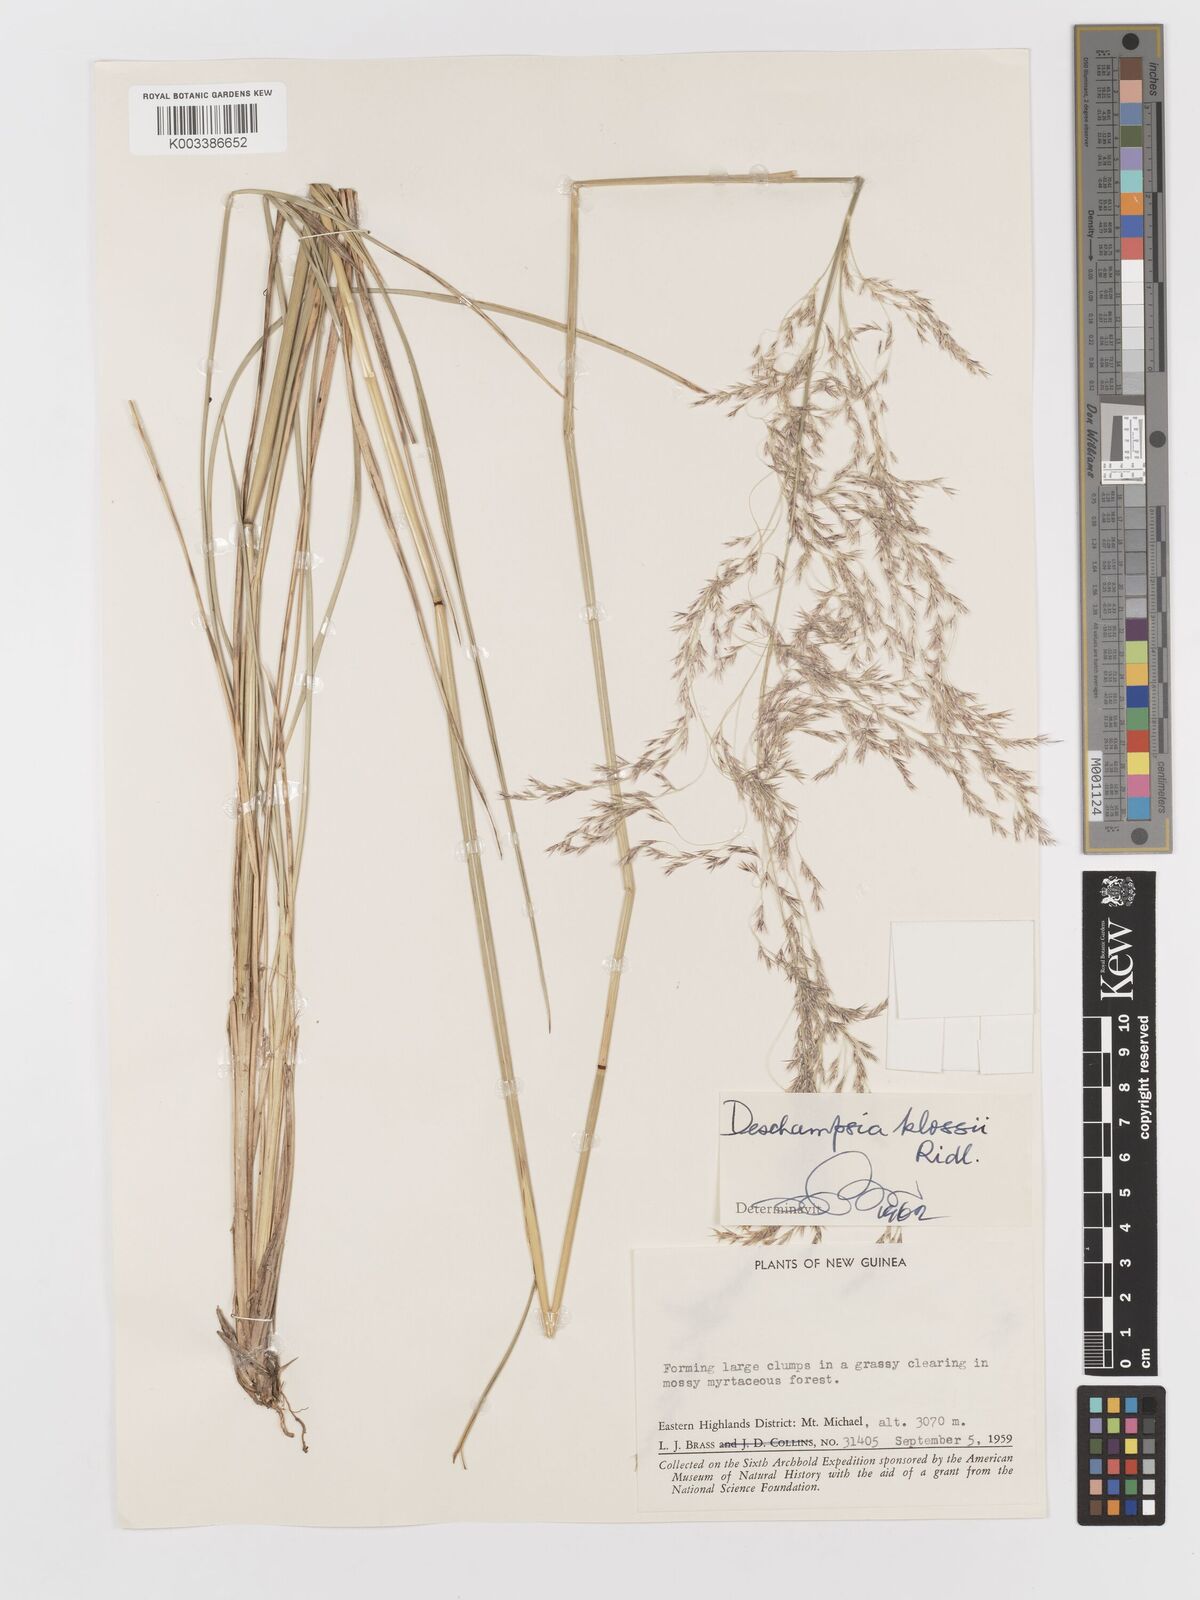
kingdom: Plantae
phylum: Tracheophyta
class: Liliopsida
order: Poales
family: Poaceae
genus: Deschampsia
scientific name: Deschampsia klossii
